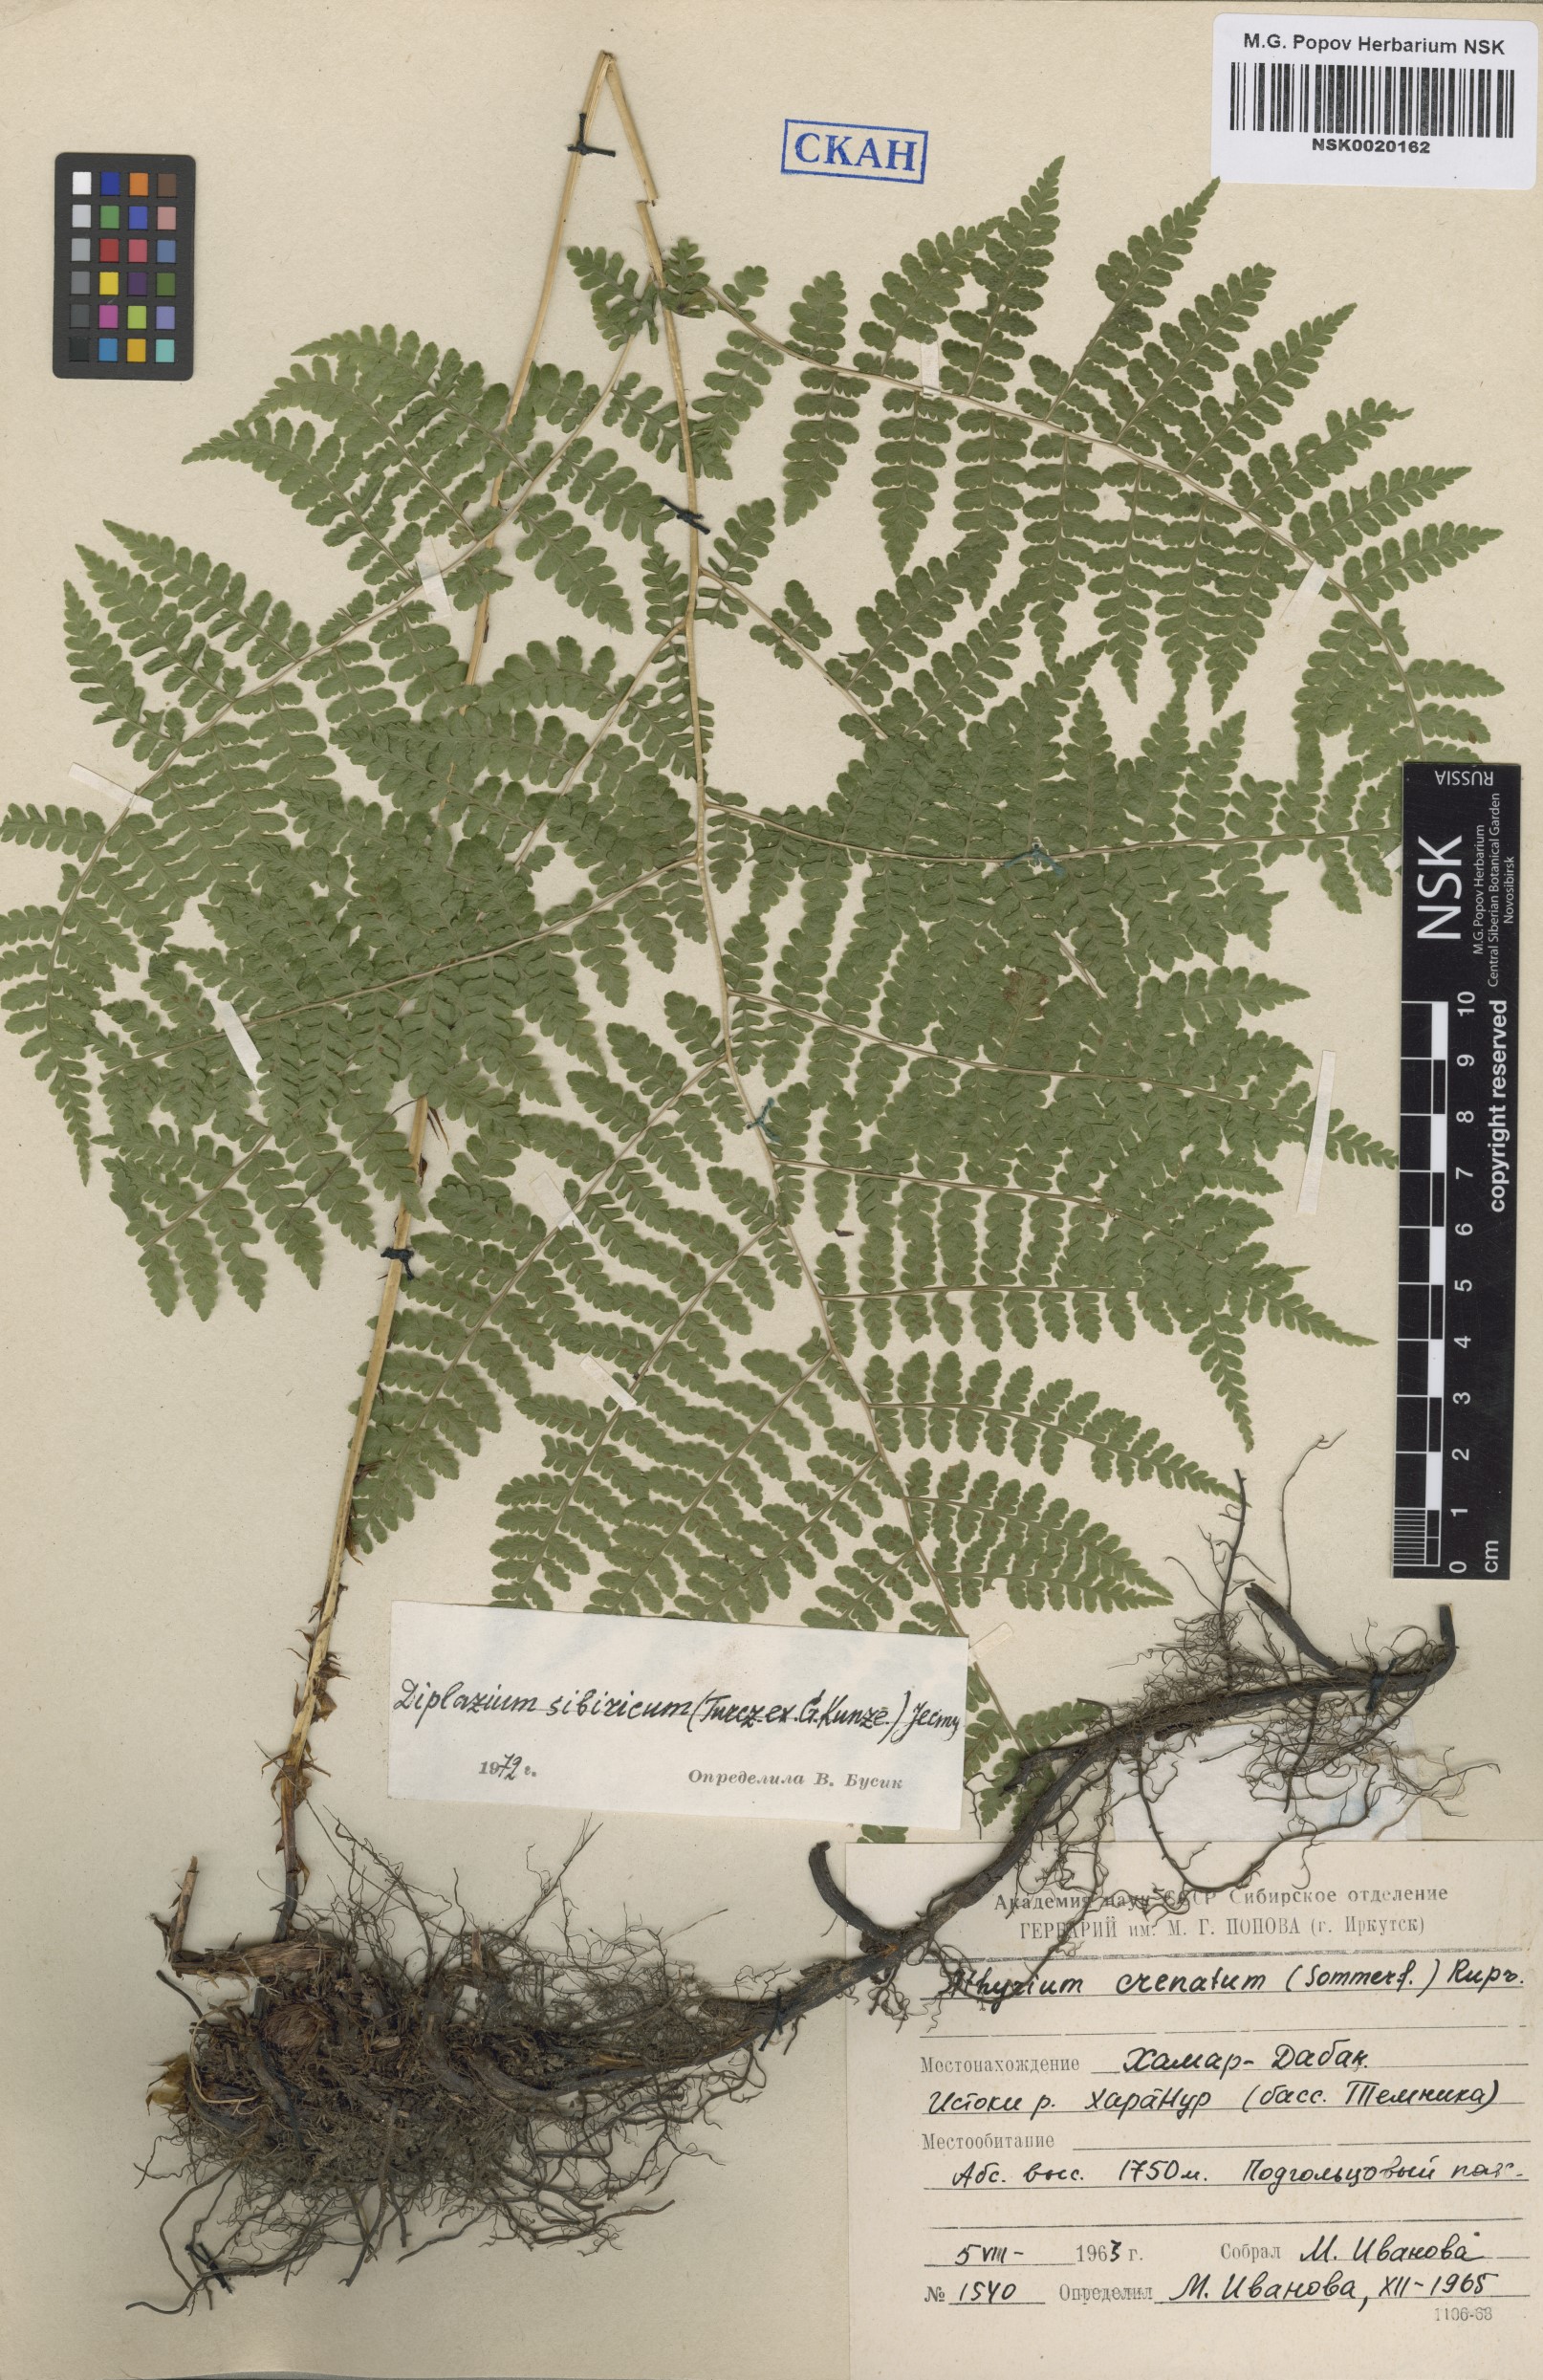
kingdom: Plantae
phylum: Tracheophyta
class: Polypodiopsida
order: Polypodiales
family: Athyriaceae
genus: Diplazium
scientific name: Diplazium sibiricum
